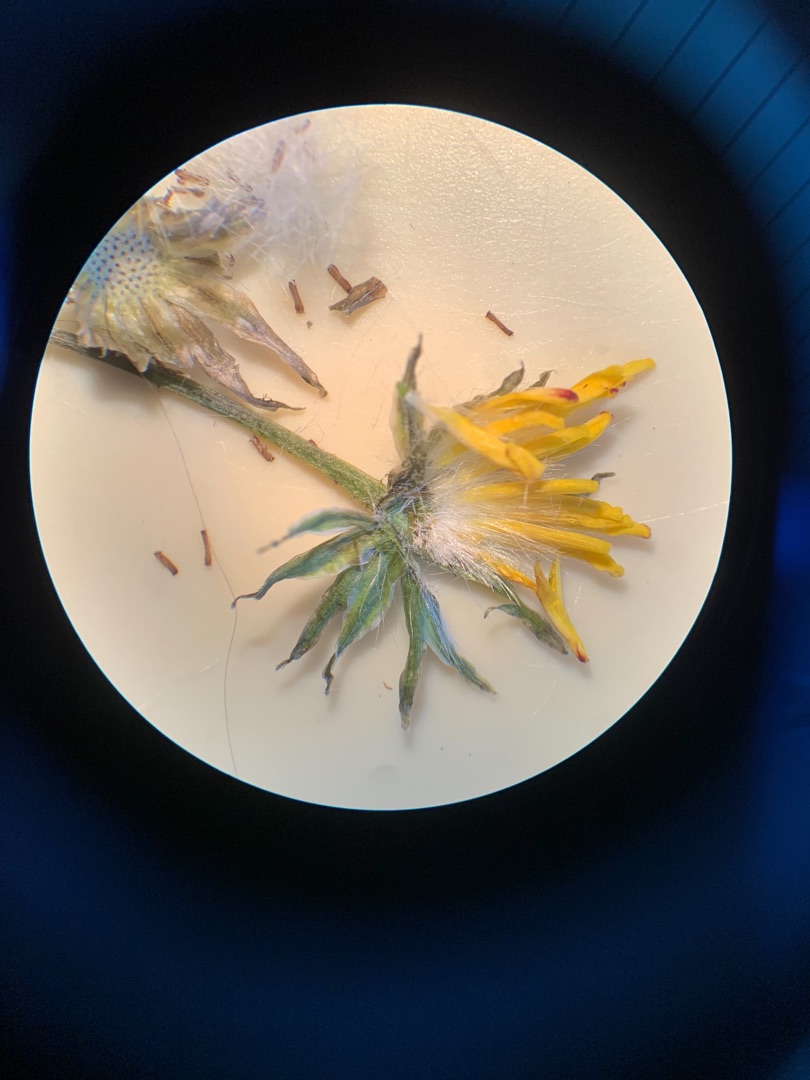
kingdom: Plantae
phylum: Tracheophyta
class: Magnoliopsida
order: Asterales
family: Asteraceae
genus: Crepis
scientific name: Crepis capillaris
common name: Grøn høgeskæg
